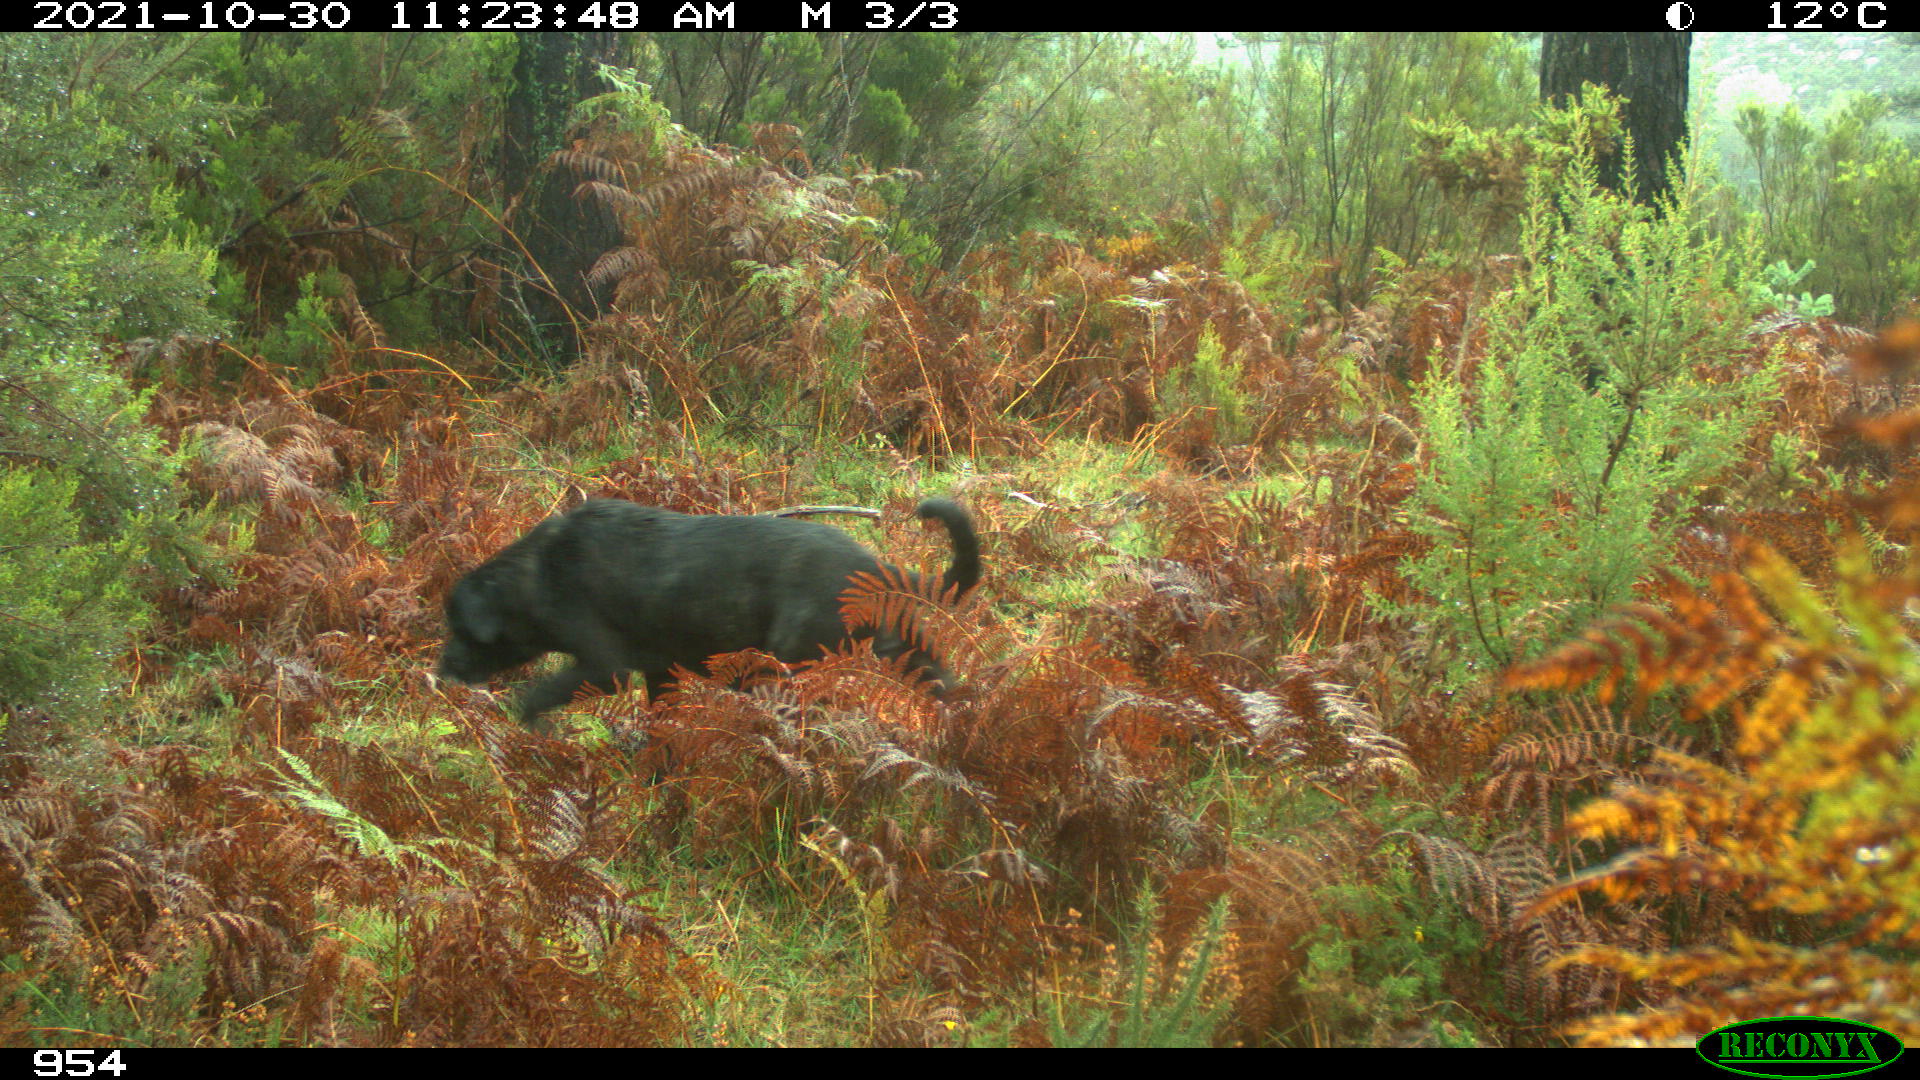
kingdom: Animalia
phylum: Chordata
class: Mammalia
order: Carnivora
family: Canidae
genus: Canis
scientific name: Canis lupus
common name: Gray wolf
